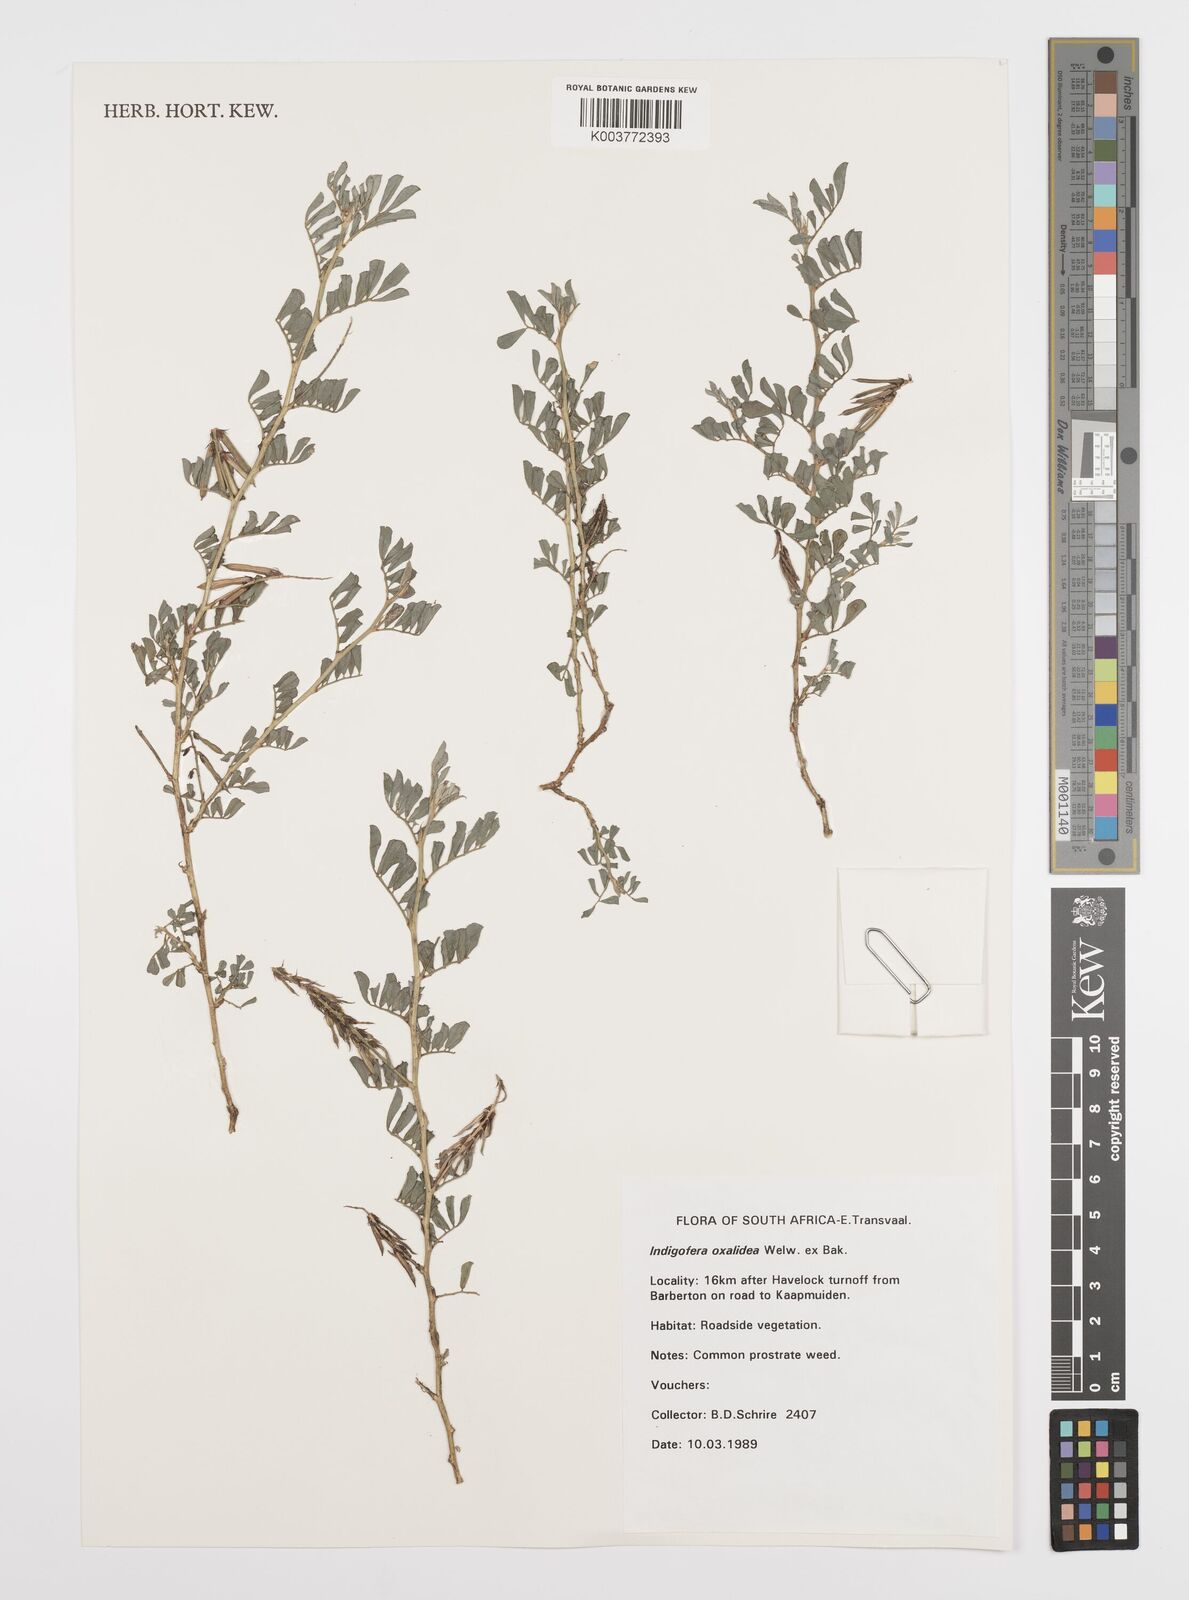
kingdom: Plantae
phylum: Tracheophyta
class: Magnoliopsida
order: Fabales
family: Fabaceae
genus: Indigofera
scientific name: Indigofera spicata
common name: Creeping indigo
